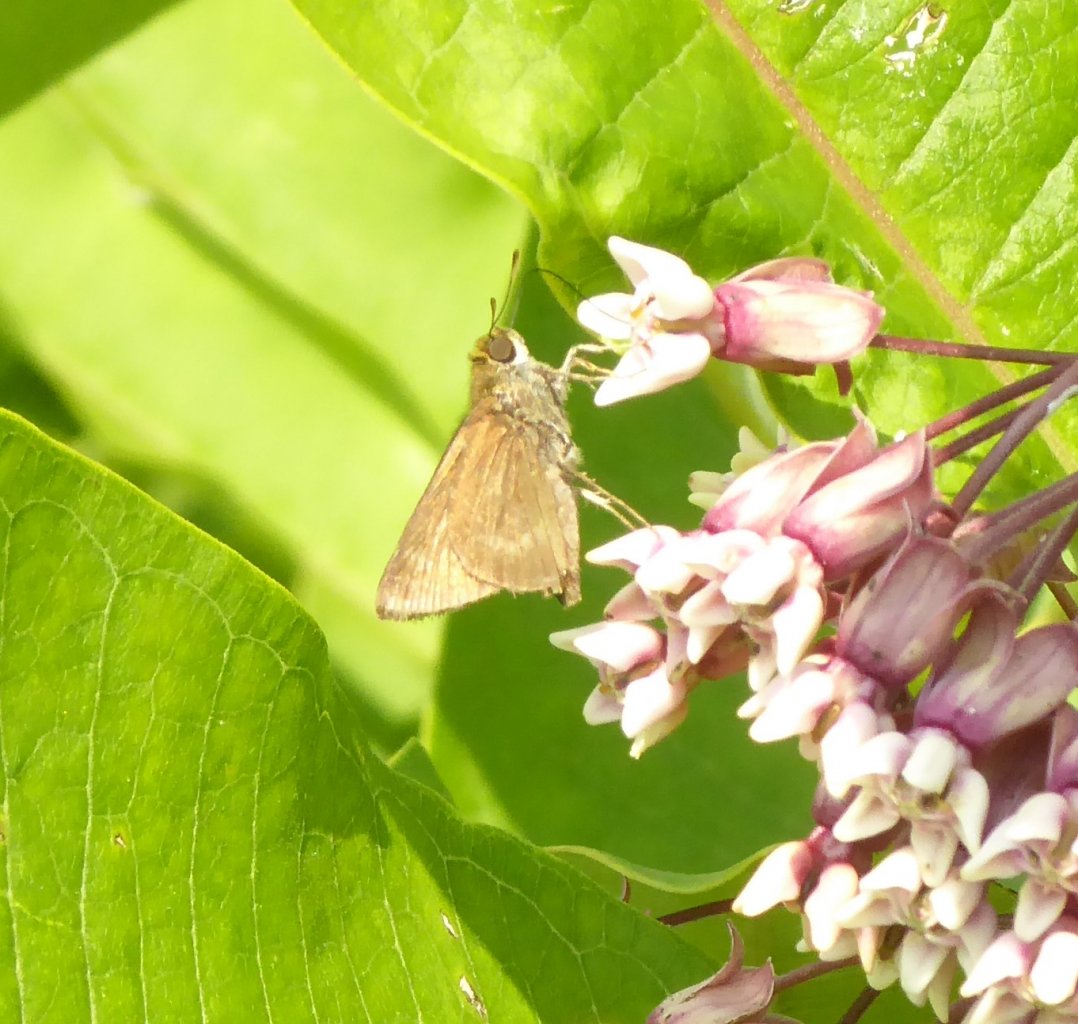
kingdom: Animalia
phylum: Arthropoda
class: Insecta
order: Lepidoptera
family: Hesperiidae
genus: Polites
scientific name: Polites egeremet
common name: Northern Broken-Dash
